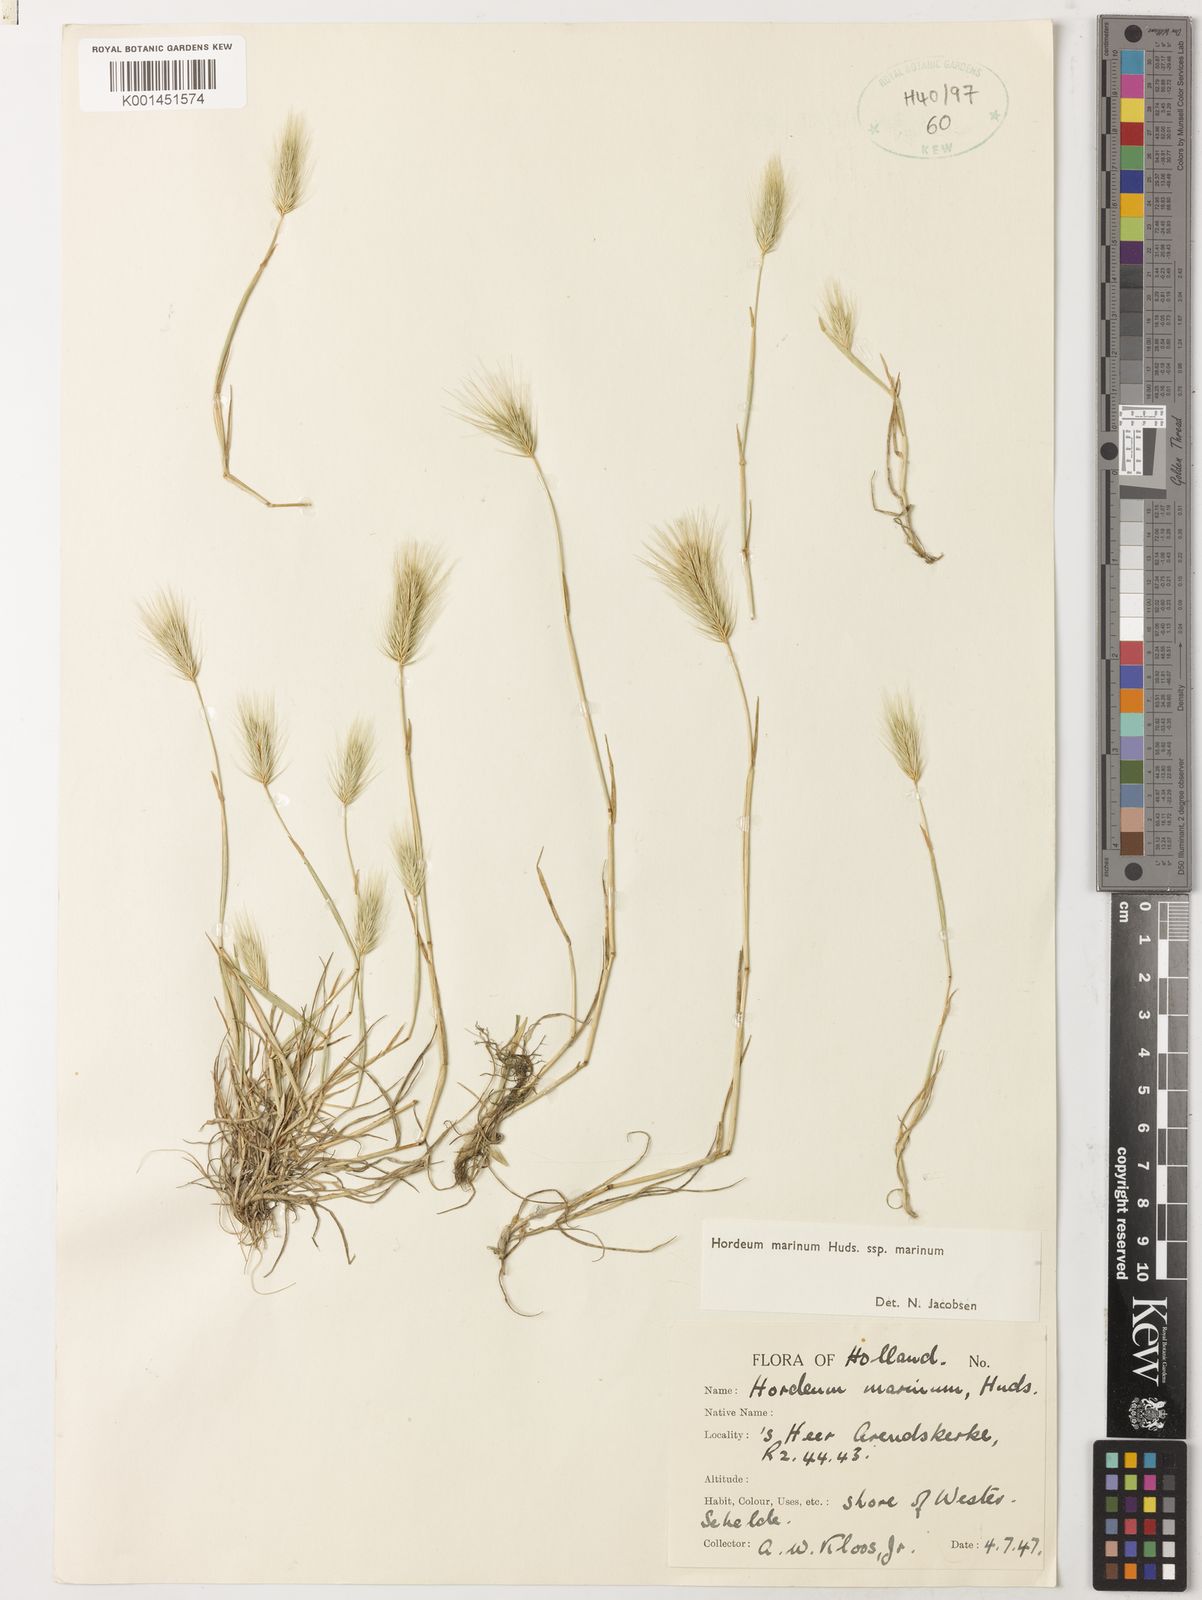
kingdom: Plantae
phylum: Tracheophyta
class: Liliopsida
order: Poales
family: Poaceae
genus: Hordeum
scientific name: Hordeum marinum
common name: Sea barley
